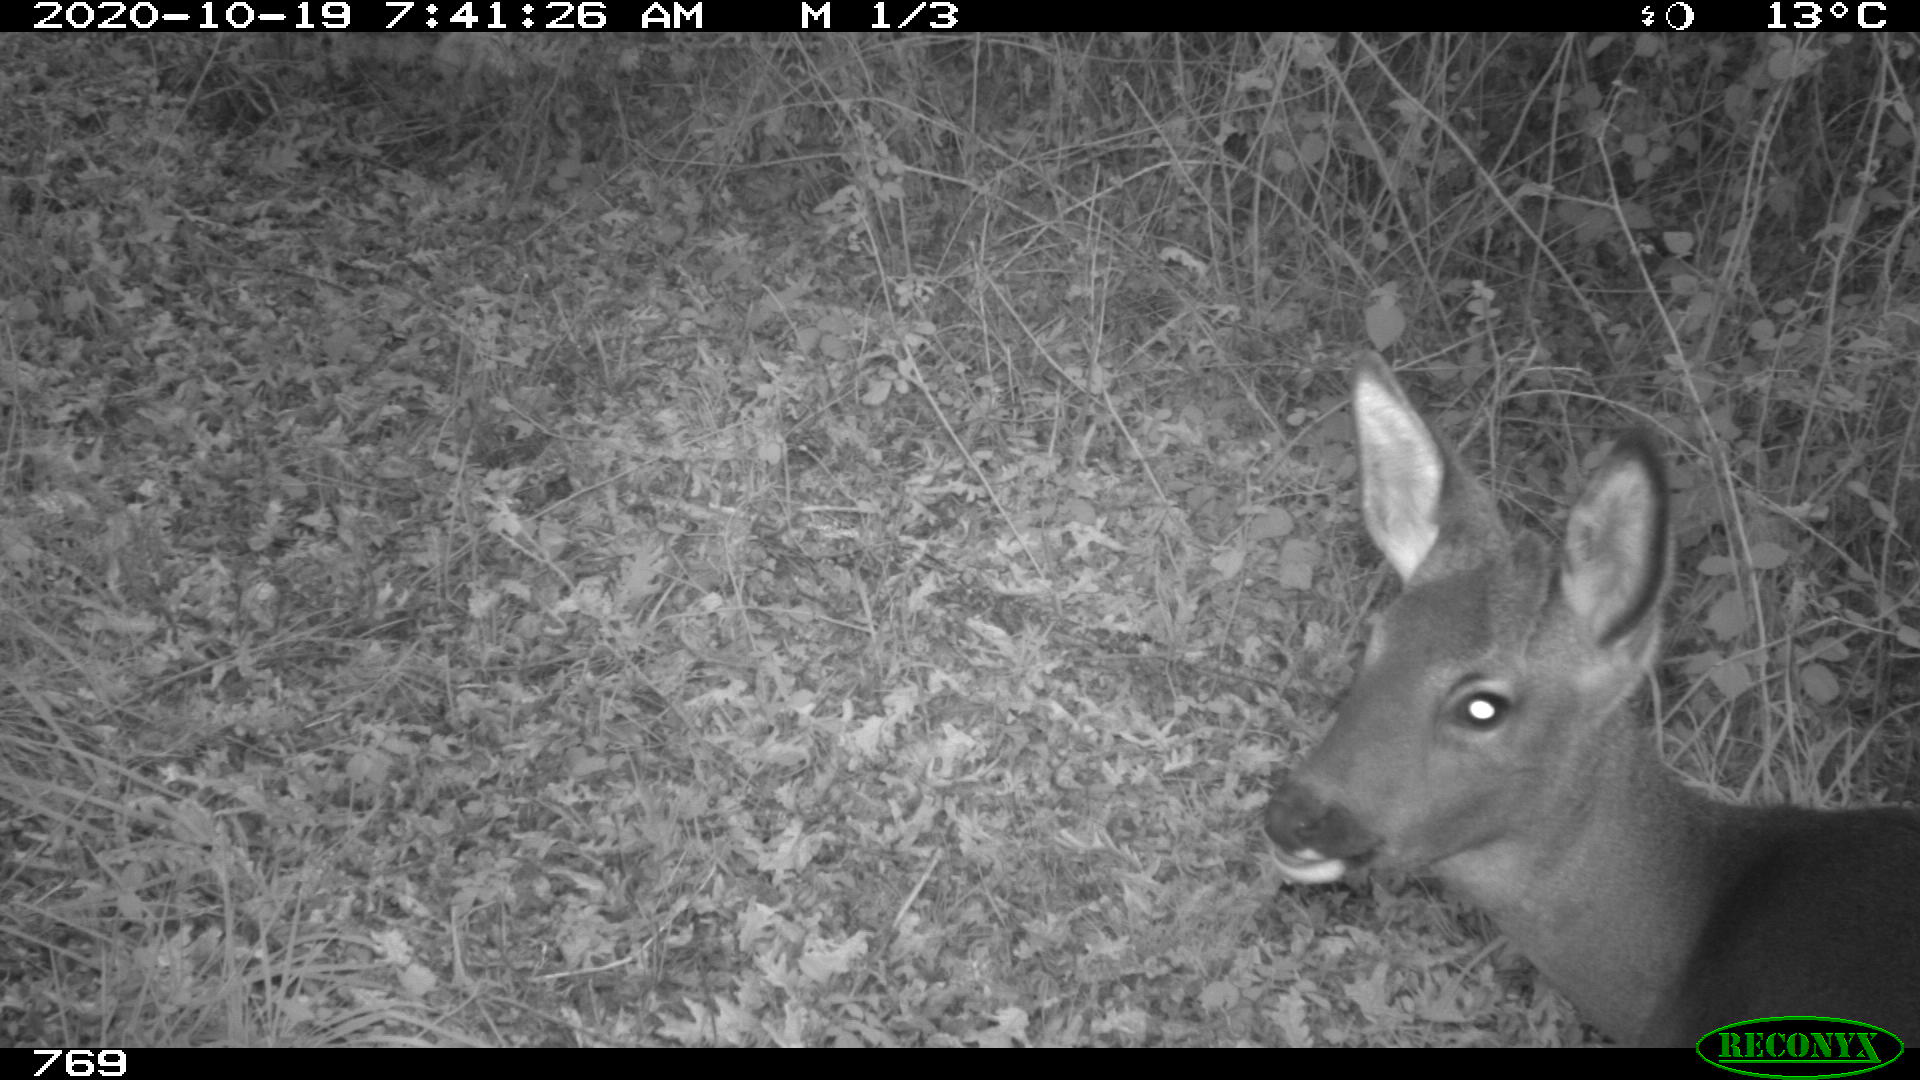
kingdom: Animalia
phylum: Chordata
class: Mammalia
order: Artiodactyla
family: Cervidae
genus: Capreolus
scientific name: Capreolus capreolus
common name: Western roe deer
